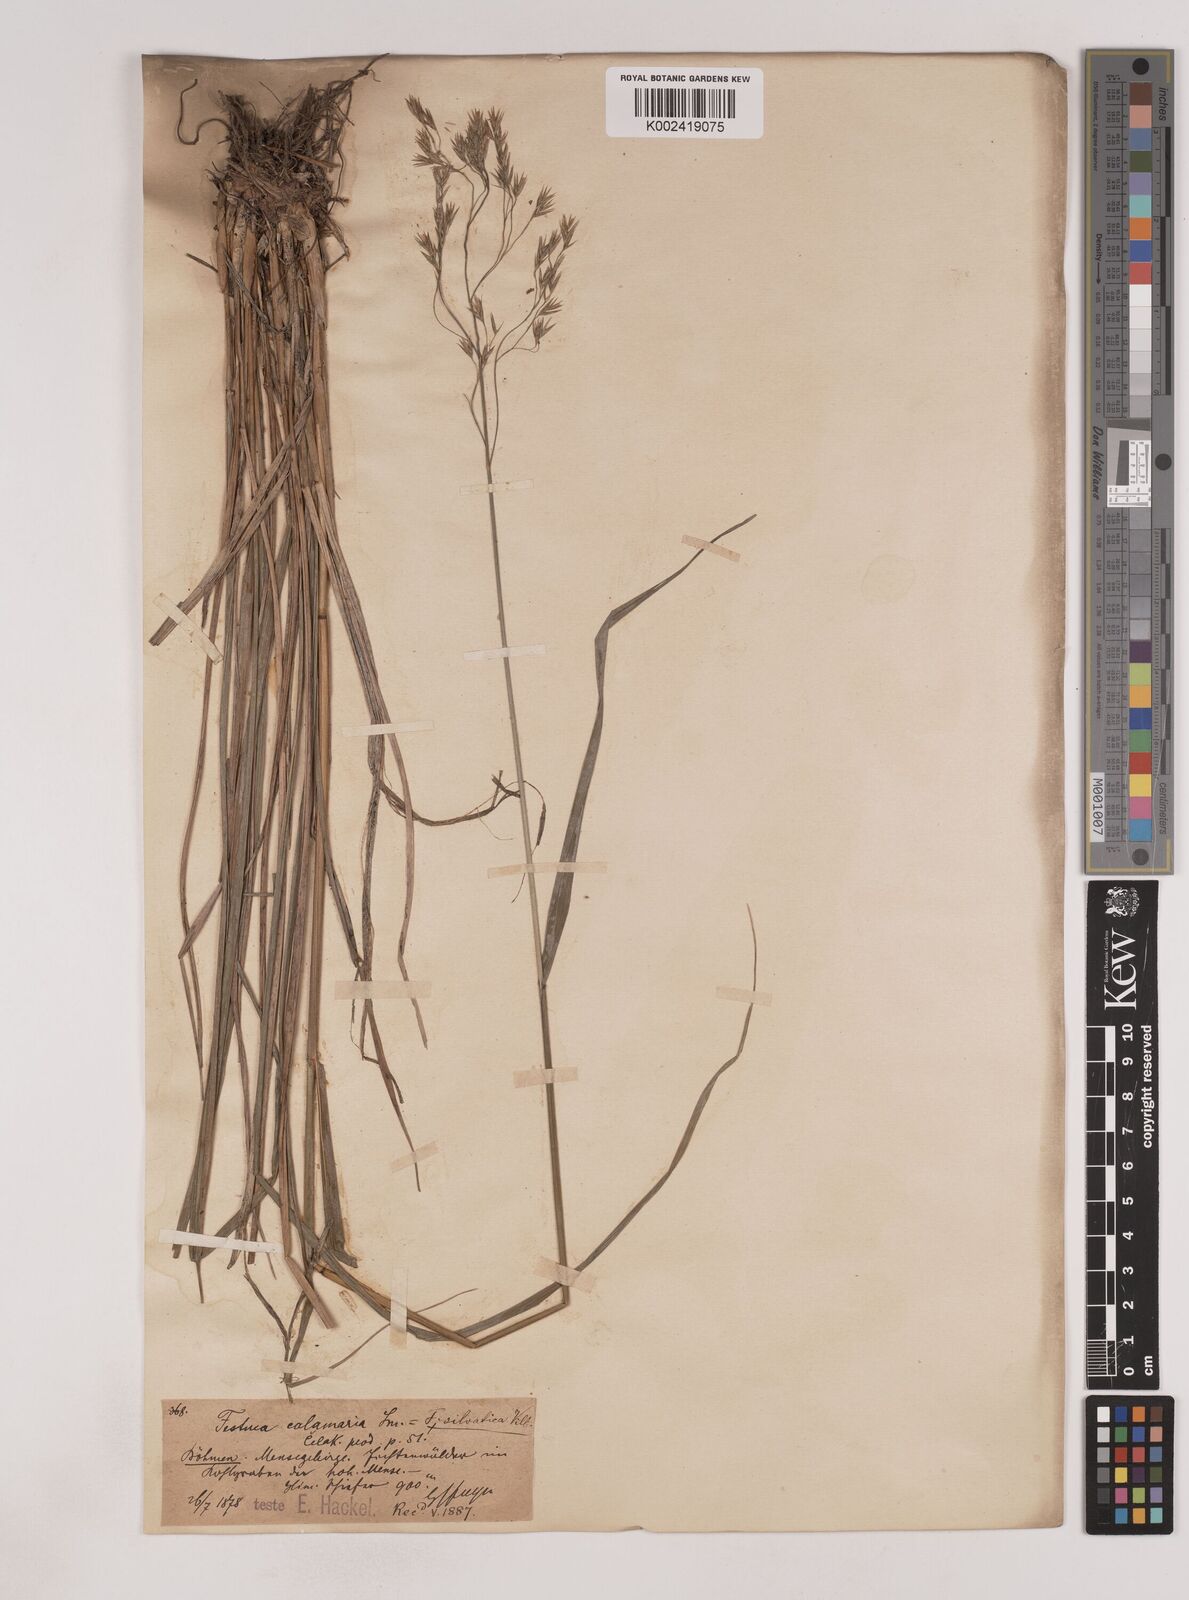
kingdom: Plantae
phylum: Tracheophyta
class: Liliopsida
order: Poales
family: Poaceae
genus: Festuca
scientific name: Festuca drymeja
